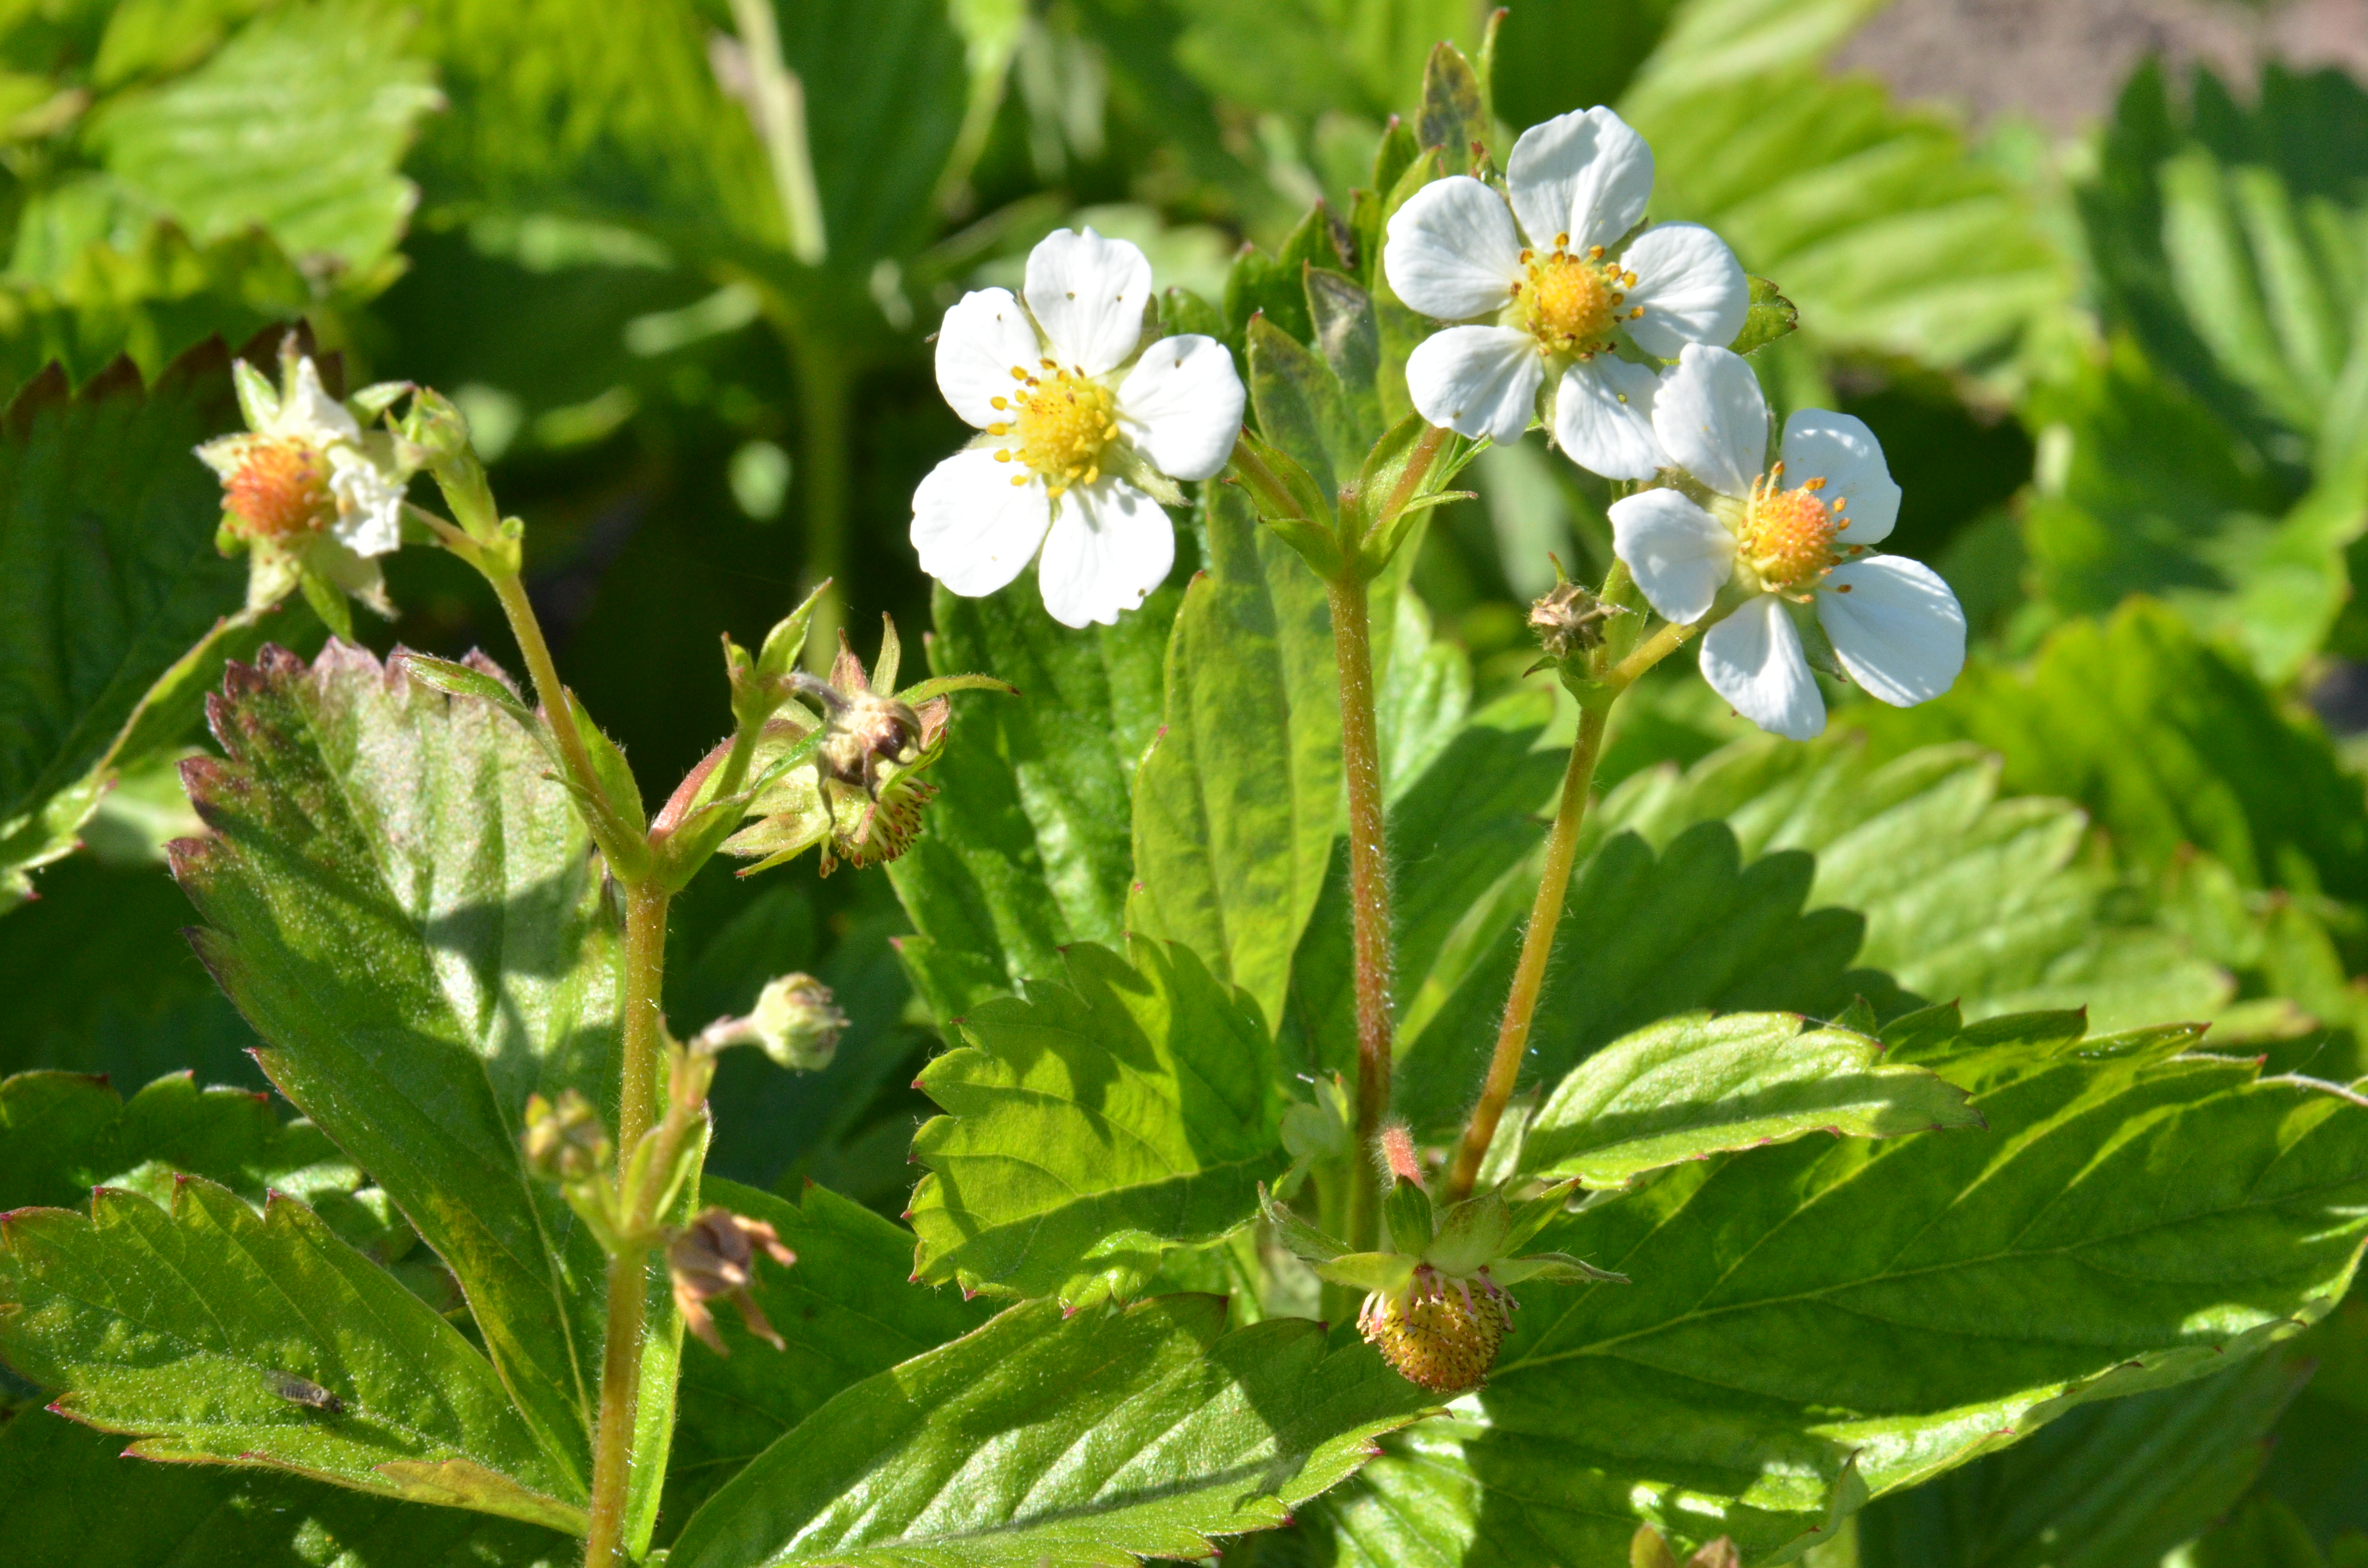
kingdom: Plantae
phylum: Tracheophyta
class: Magnoliopsida
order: Rosales
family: Rosaceae
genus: Fragaria
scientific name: Fragaria vesca
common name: Wild strawberry
